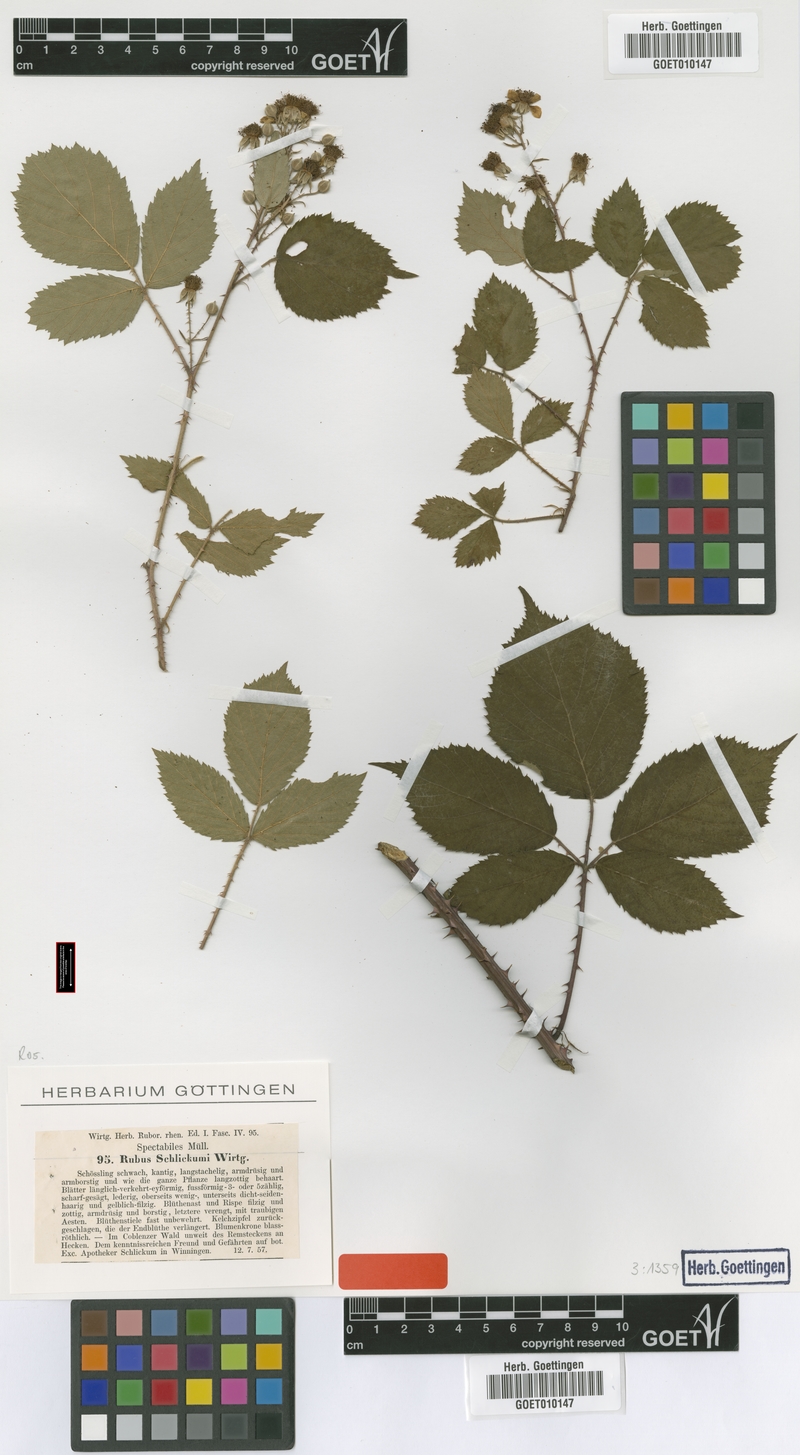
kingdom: Plantae
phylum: Tracheophyta
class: Magnoliopsida
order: Rosales
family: Rosaceae
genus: Rubus
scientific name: Rubus schlickumii
